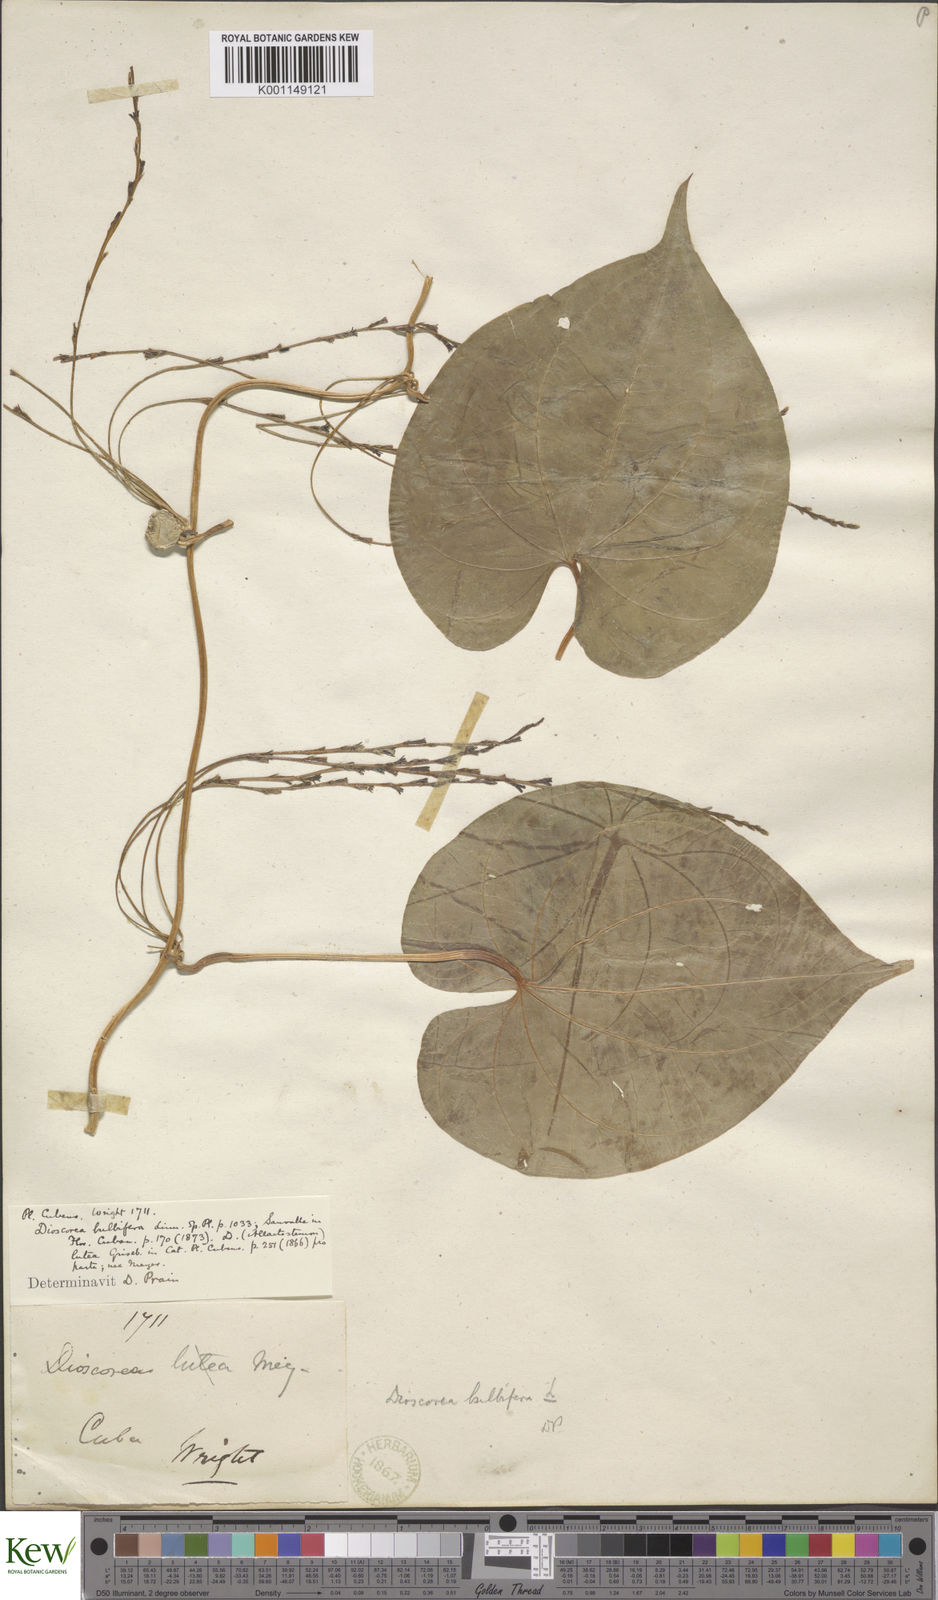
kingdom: Plantae
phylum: Tracheophyta
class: Liliopsida
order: Dioscoreales
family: Dioscoreaceae
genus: Dioscorea
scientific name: Dioscorea bulbifera
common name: Air yam
